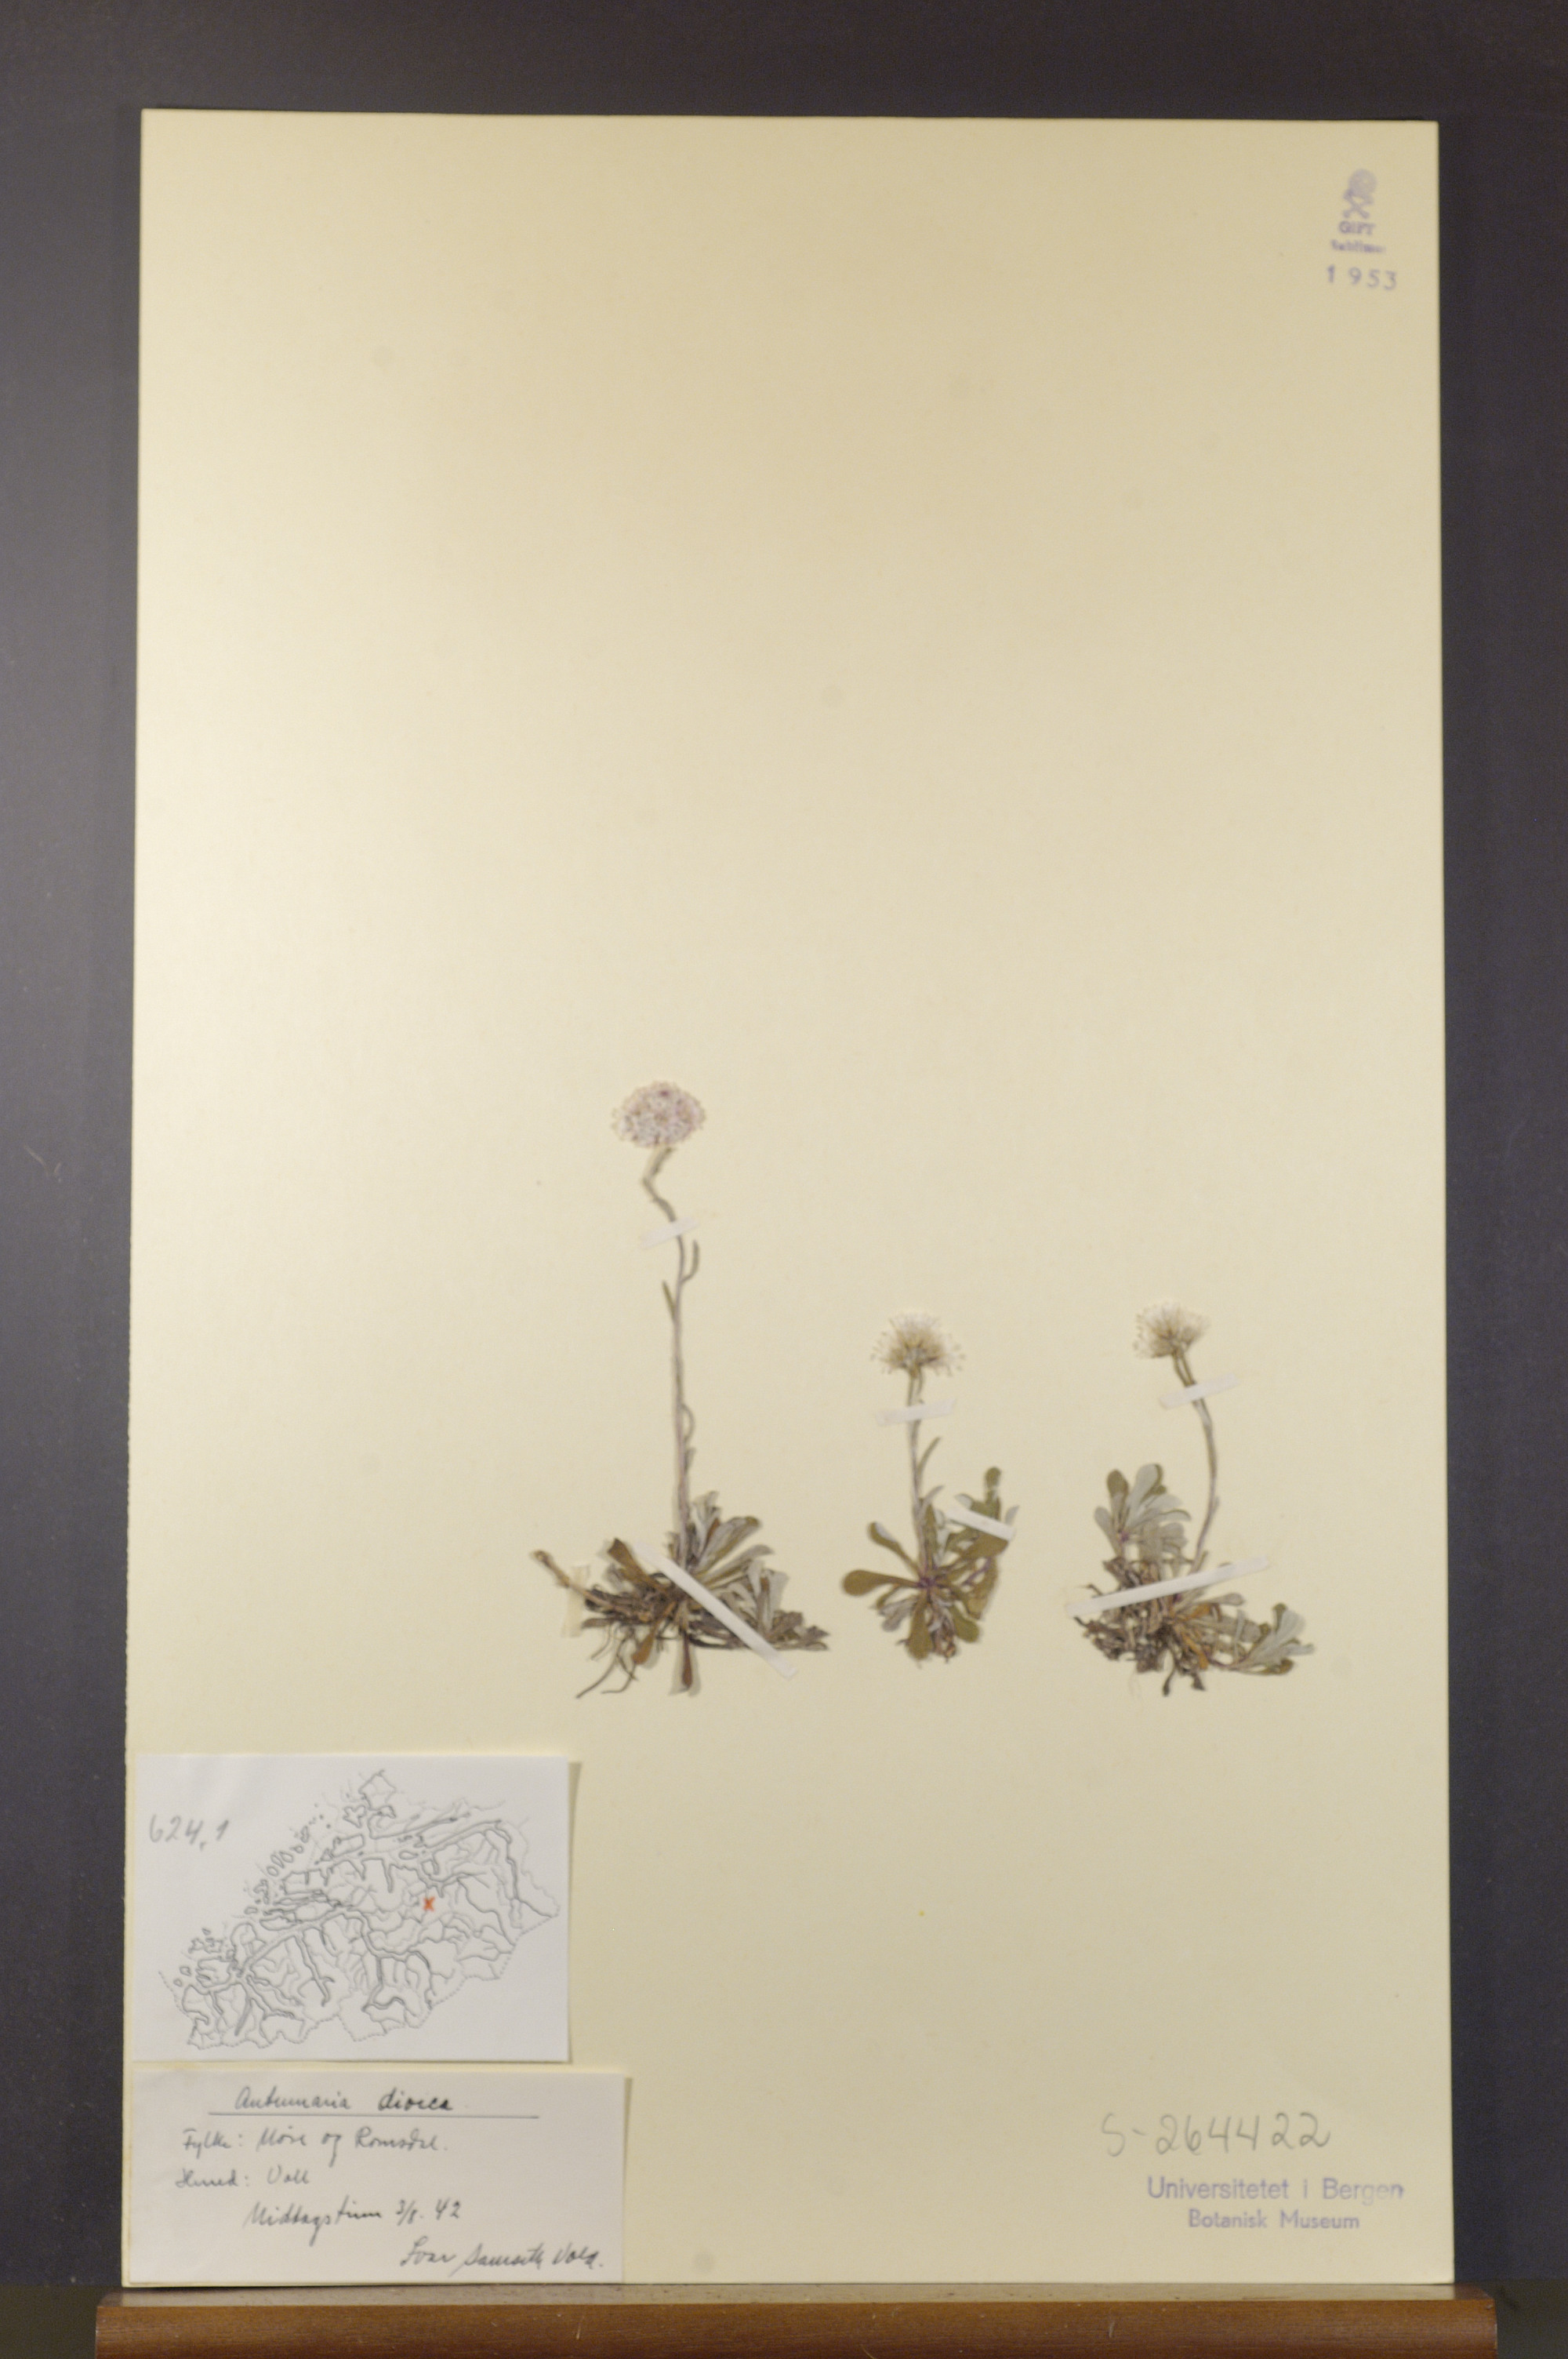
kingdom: Plantae
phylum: Tracheophyta
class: Magnoliopsida
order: Asterales
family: Asteraceae
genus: Antennaria
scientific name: Antennaria dioica
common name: Mountain everlasting
